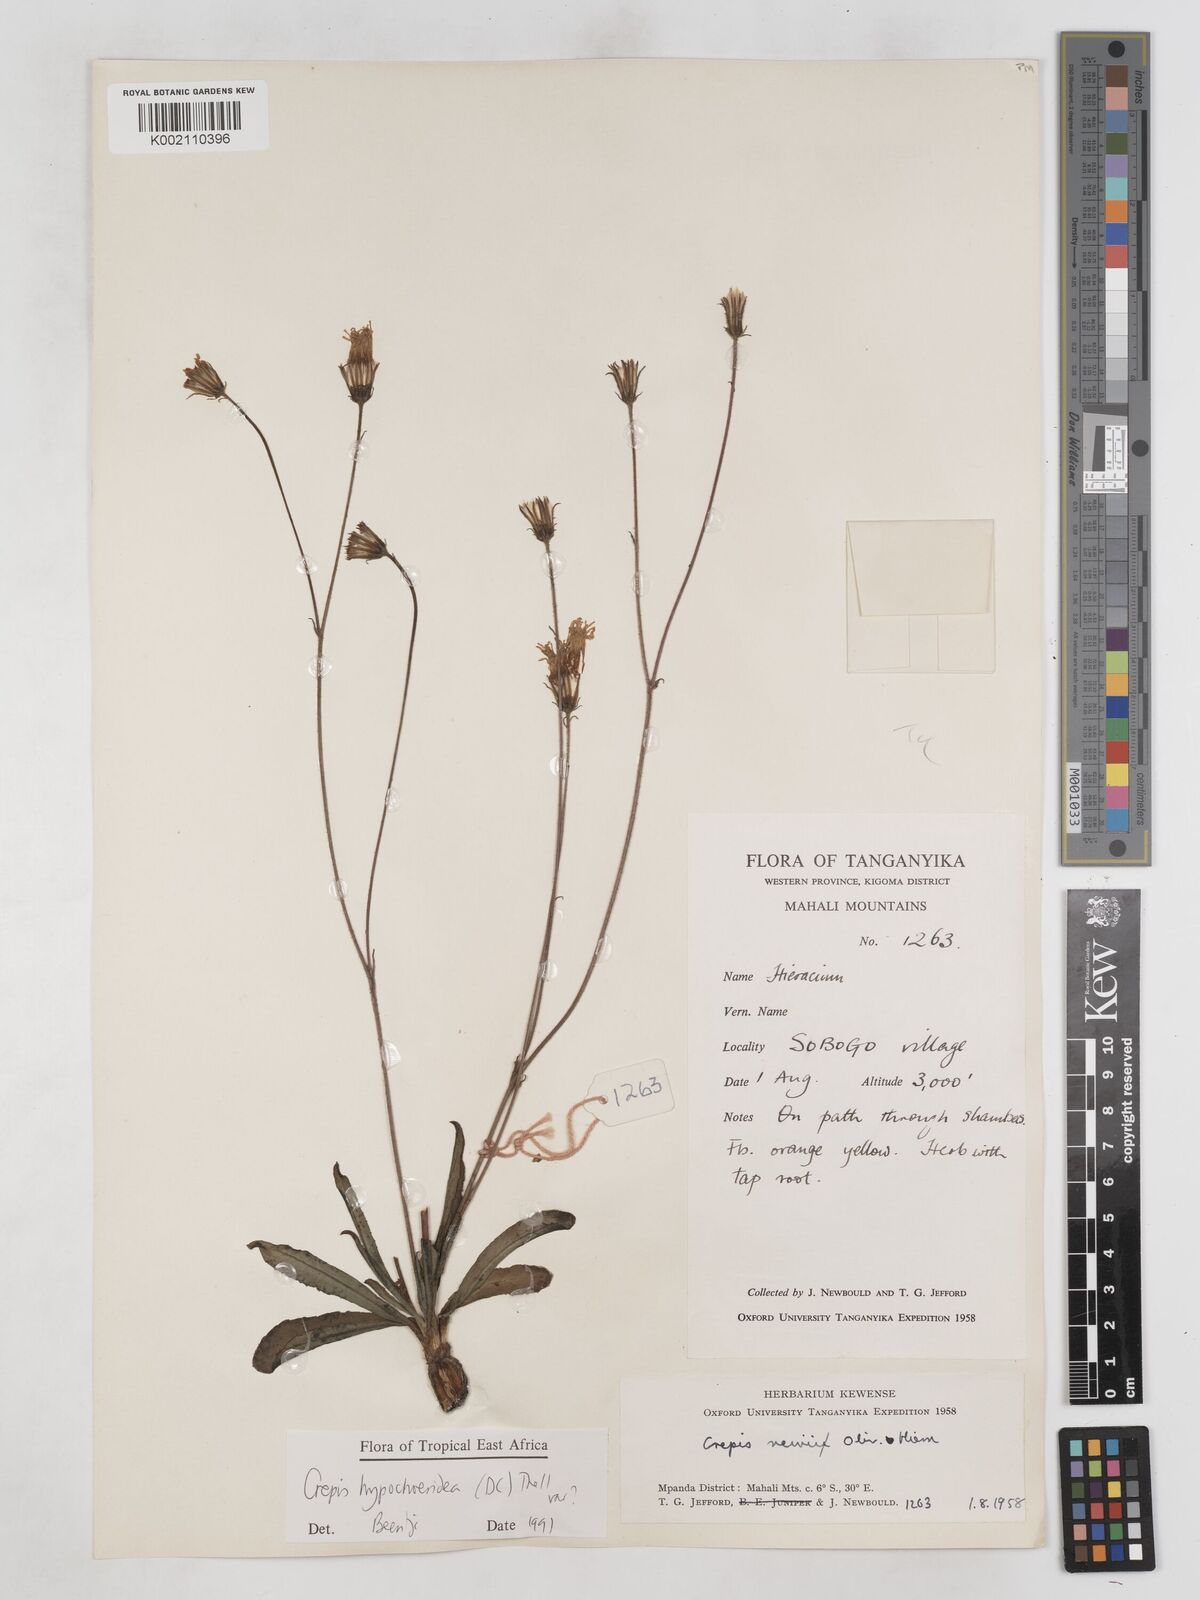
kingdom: Plantae
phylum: Tracheophyta
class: Magnoliopsida
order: Asterales
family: Asteraceae
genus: Crepis
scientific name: Crepis hypochoeridea
